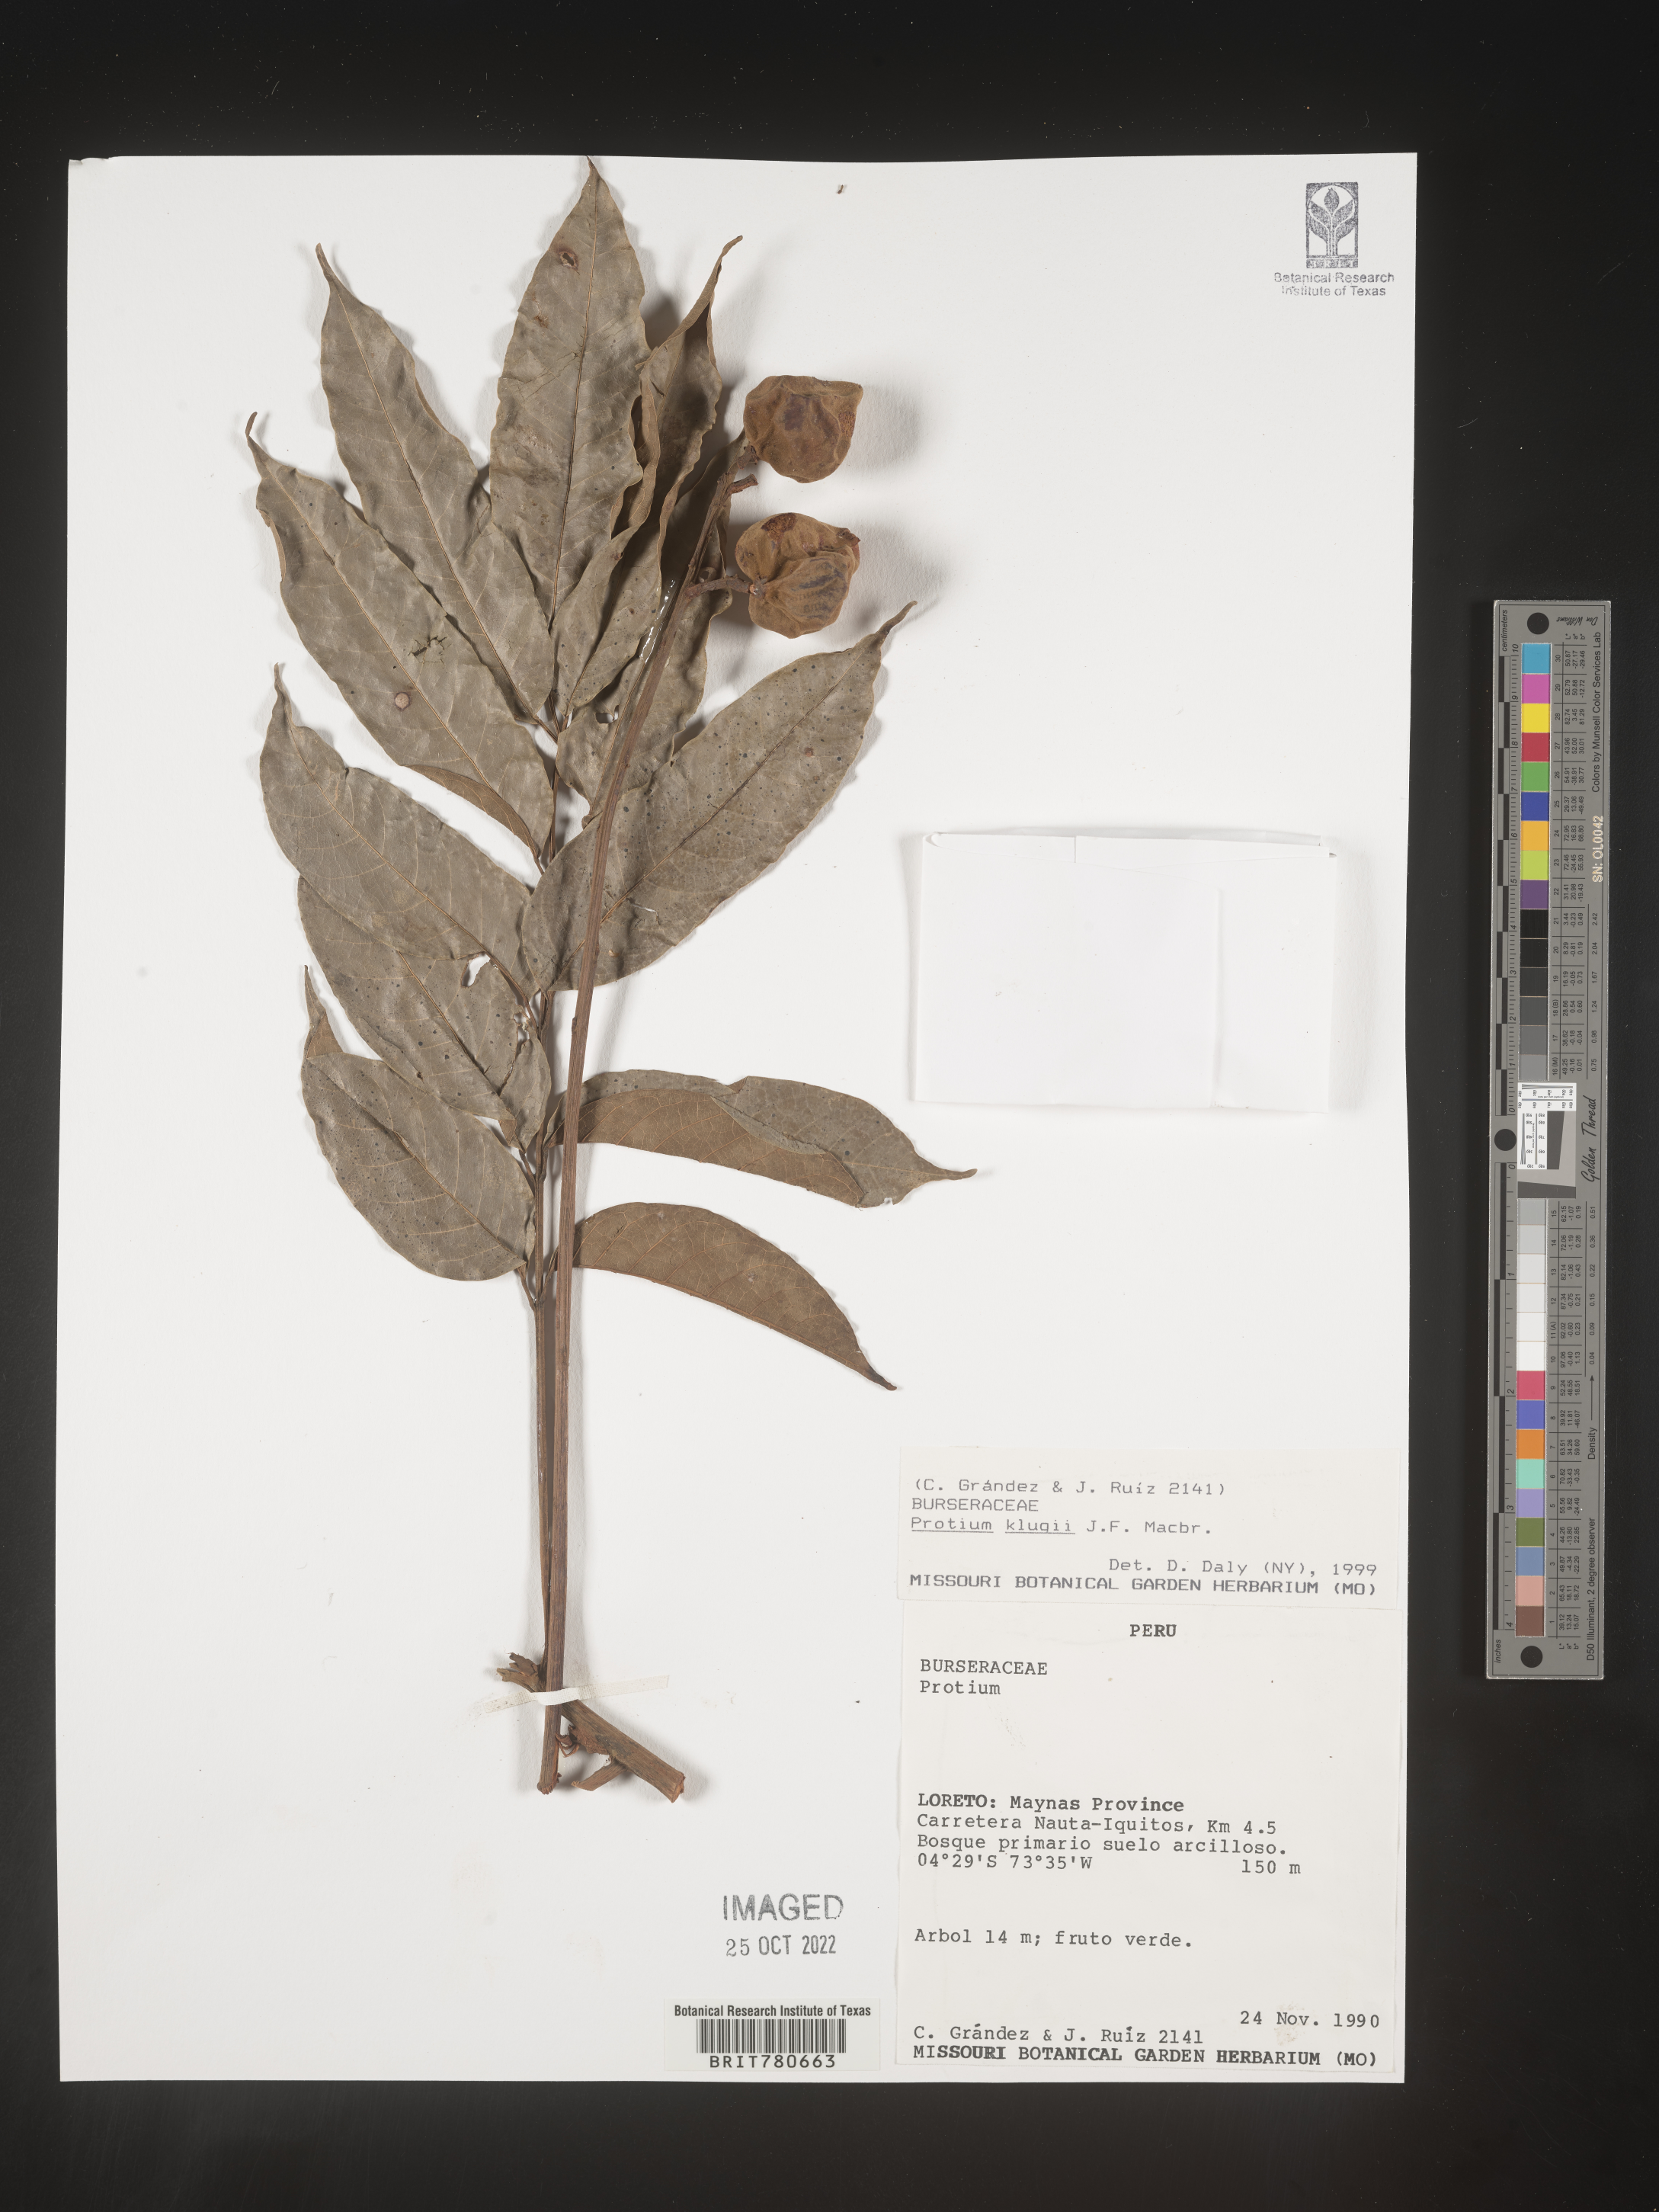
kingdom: Plantae
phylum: Tracheophyta
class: Magnoliopsida
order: Sapindales
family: Burseraceae
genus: Protium
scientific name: Protium
